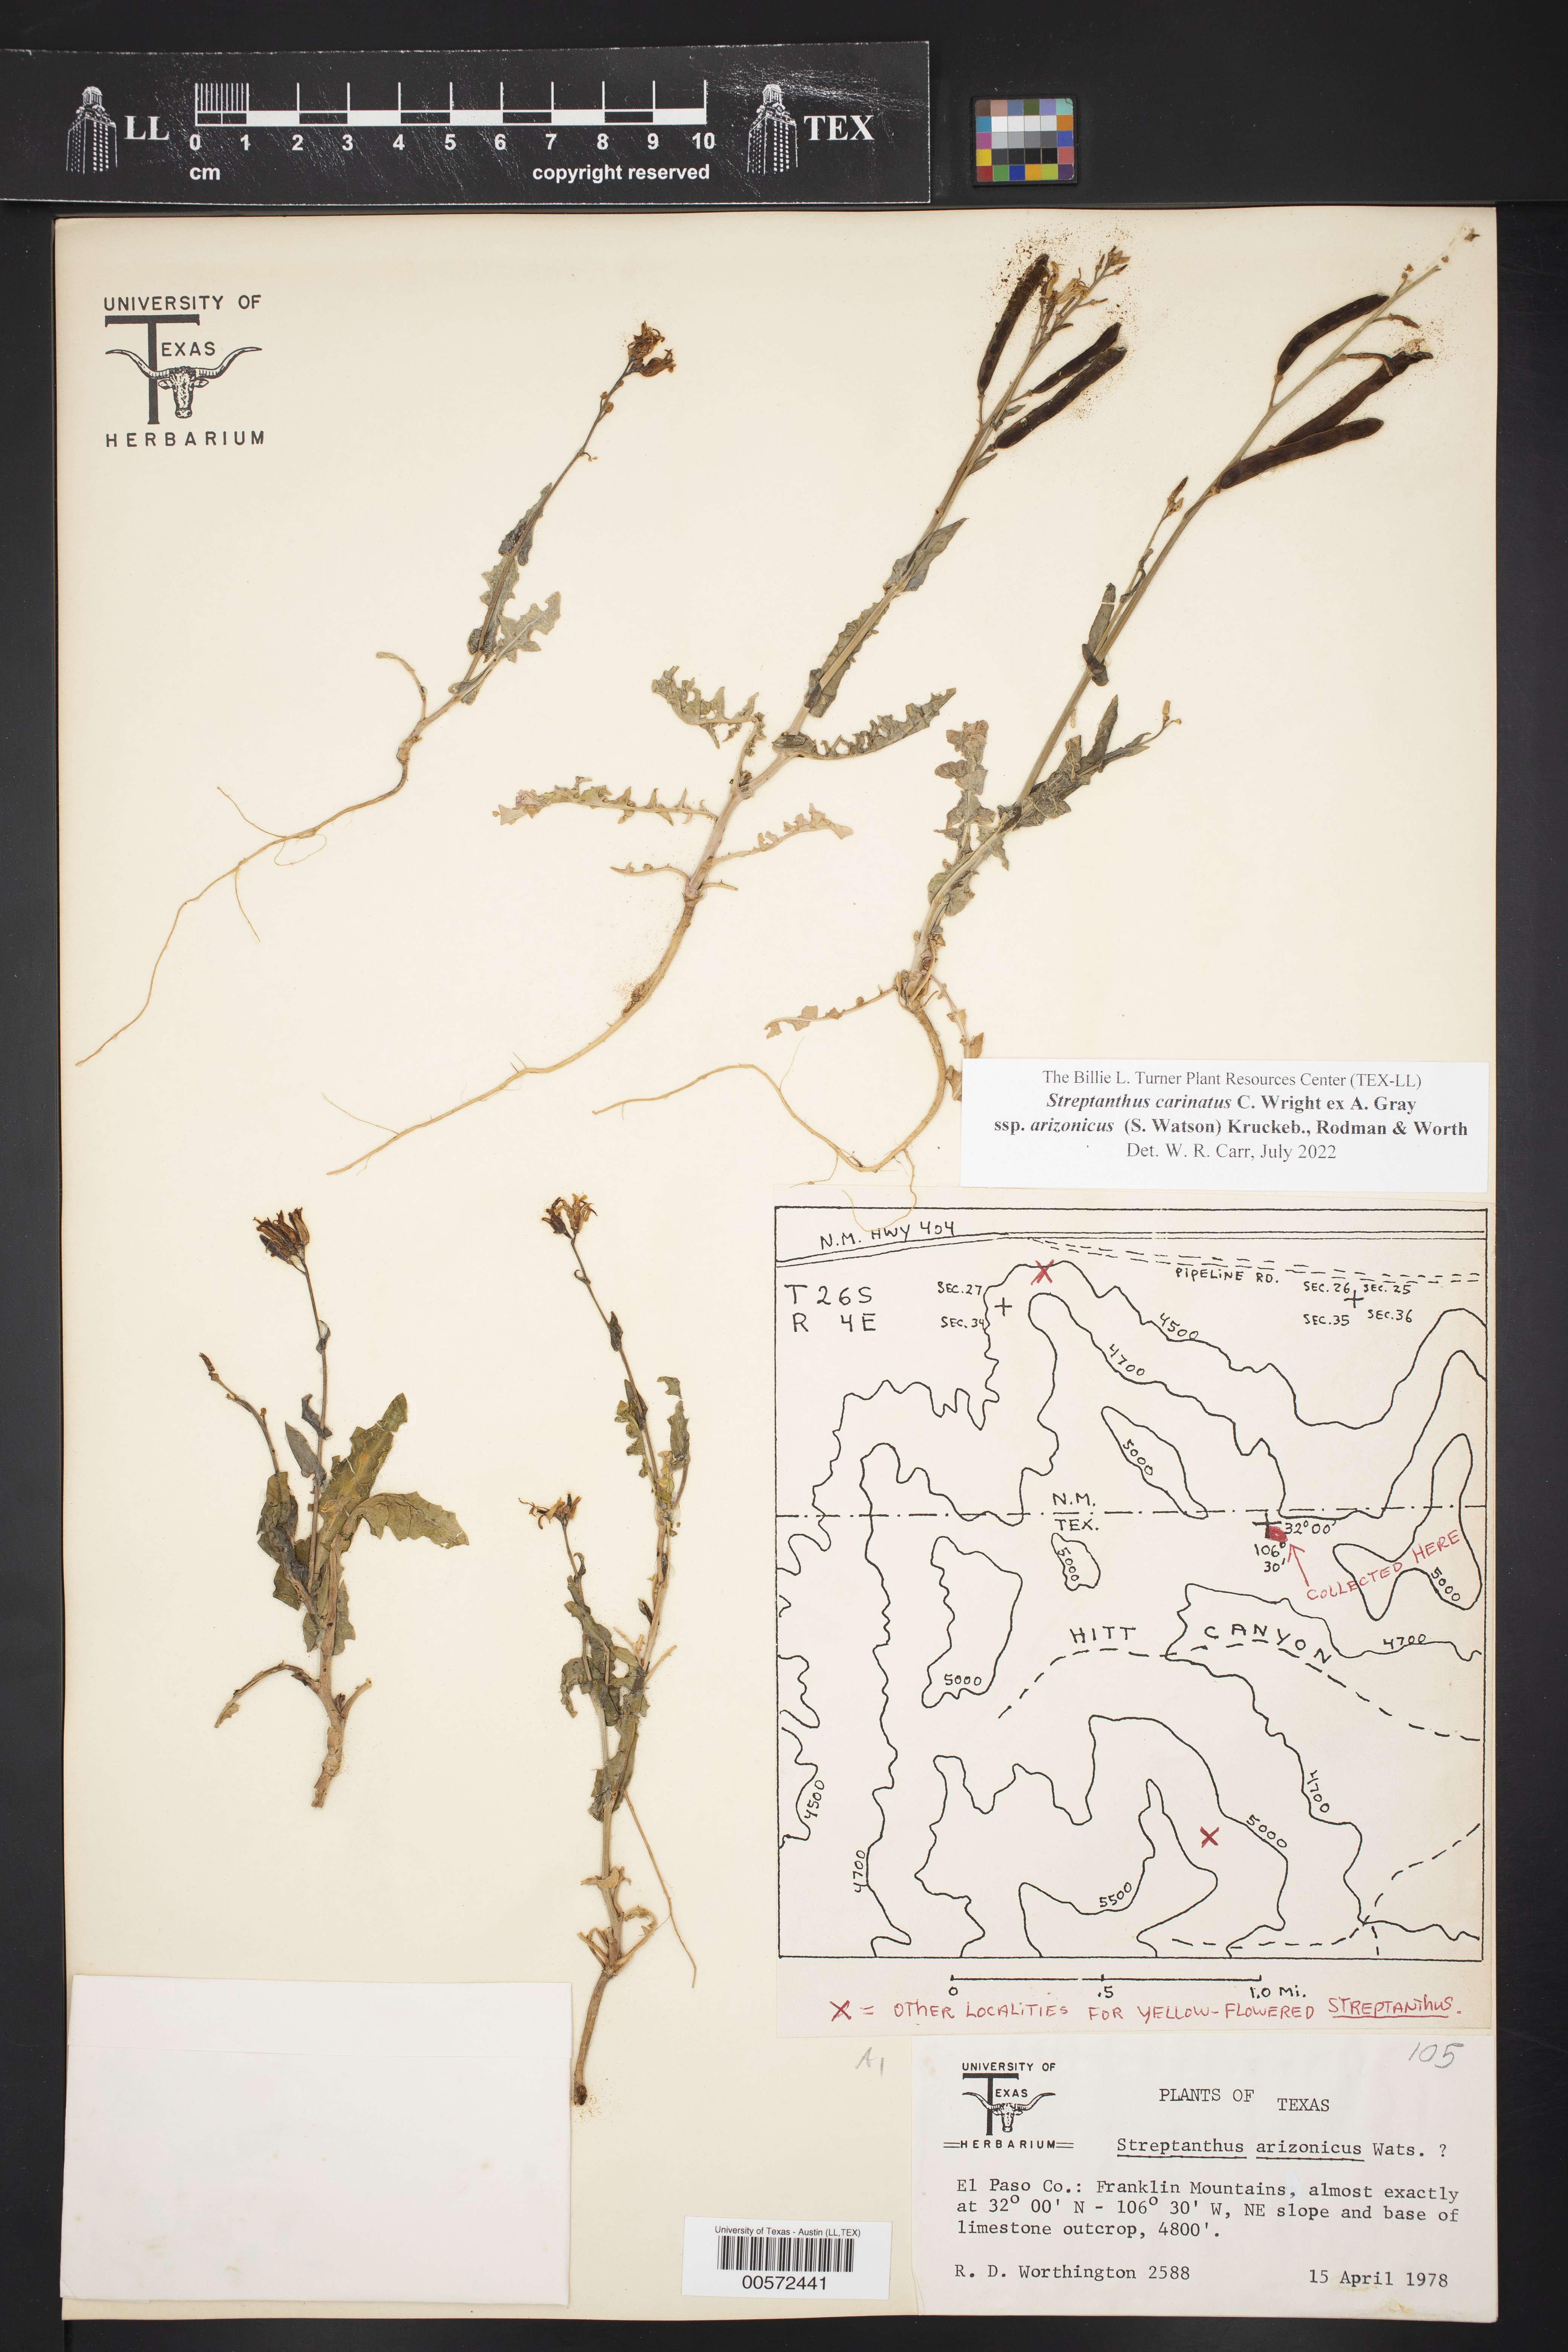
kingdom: Plantae
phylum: Tracheophyta
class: Magnoliopsida
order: Brassicales
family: Brassicaceae
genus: Streptanthus
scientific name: Streptanthus carinatus
